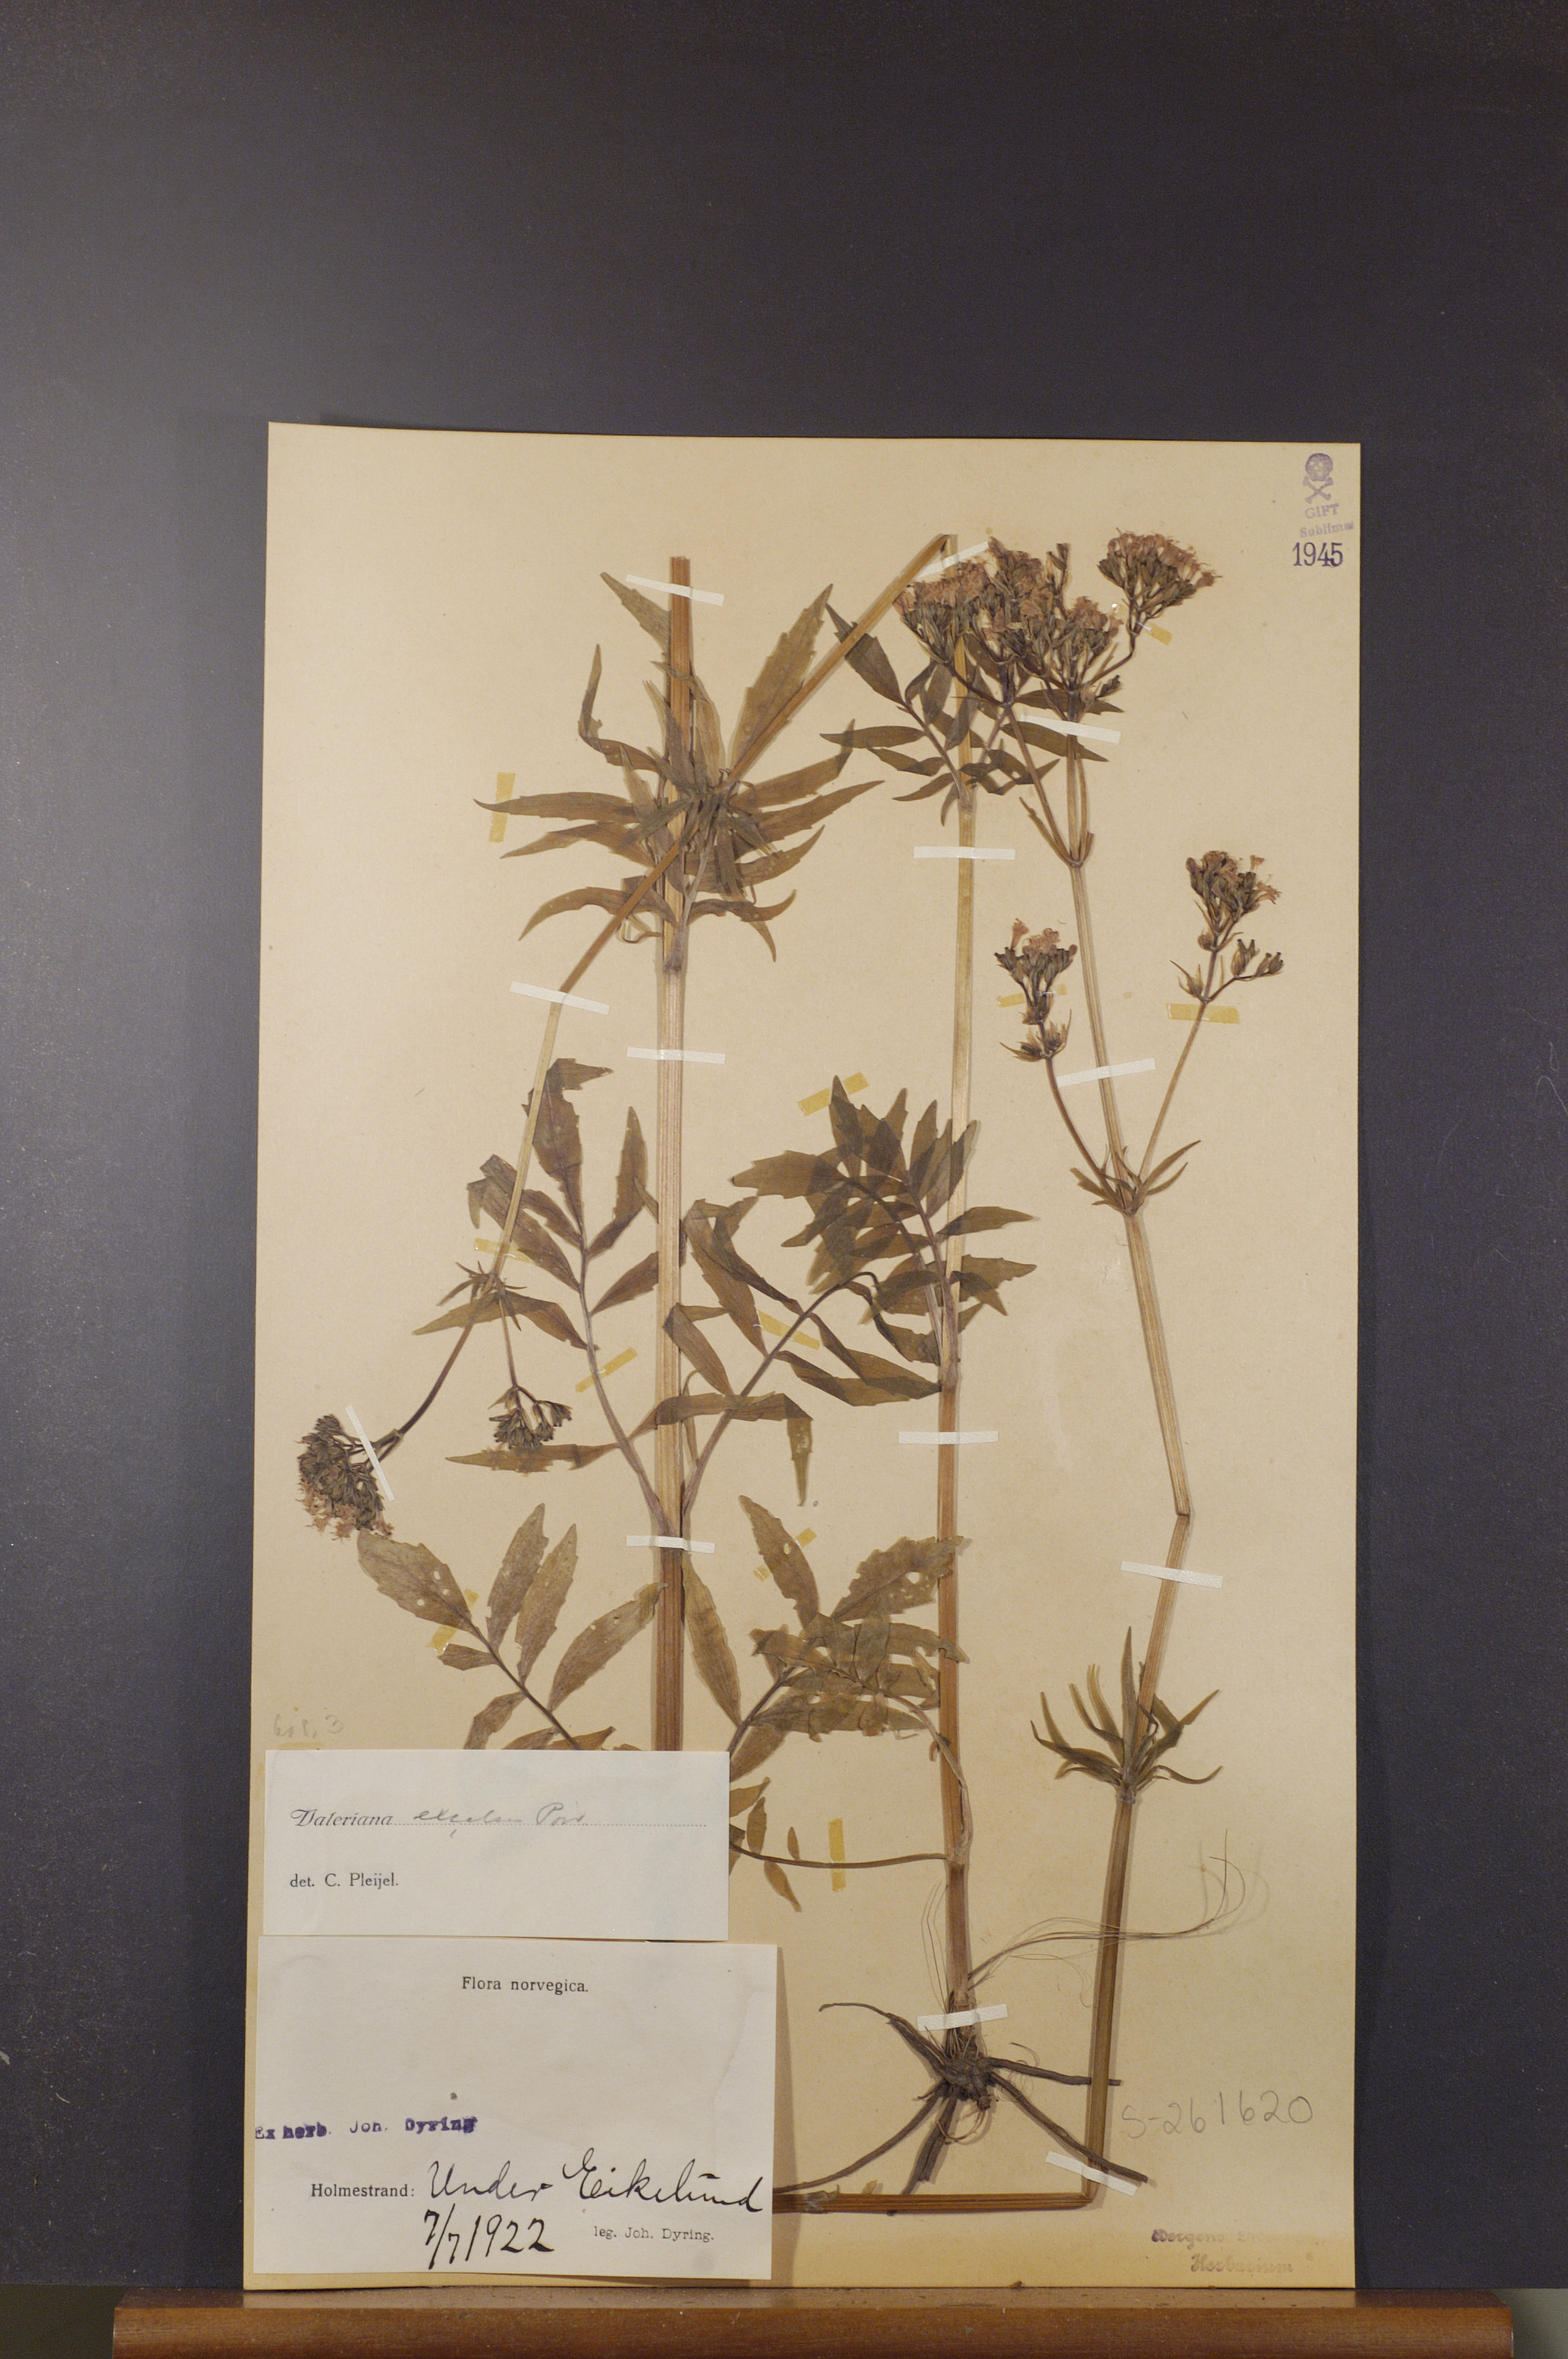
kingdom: Plantae
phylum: Tracheophyta
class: Magnoliopsida
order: Dipsacales
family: Caprifoliaceae
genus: Valeriana
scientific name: Valeriana sambucifolia
